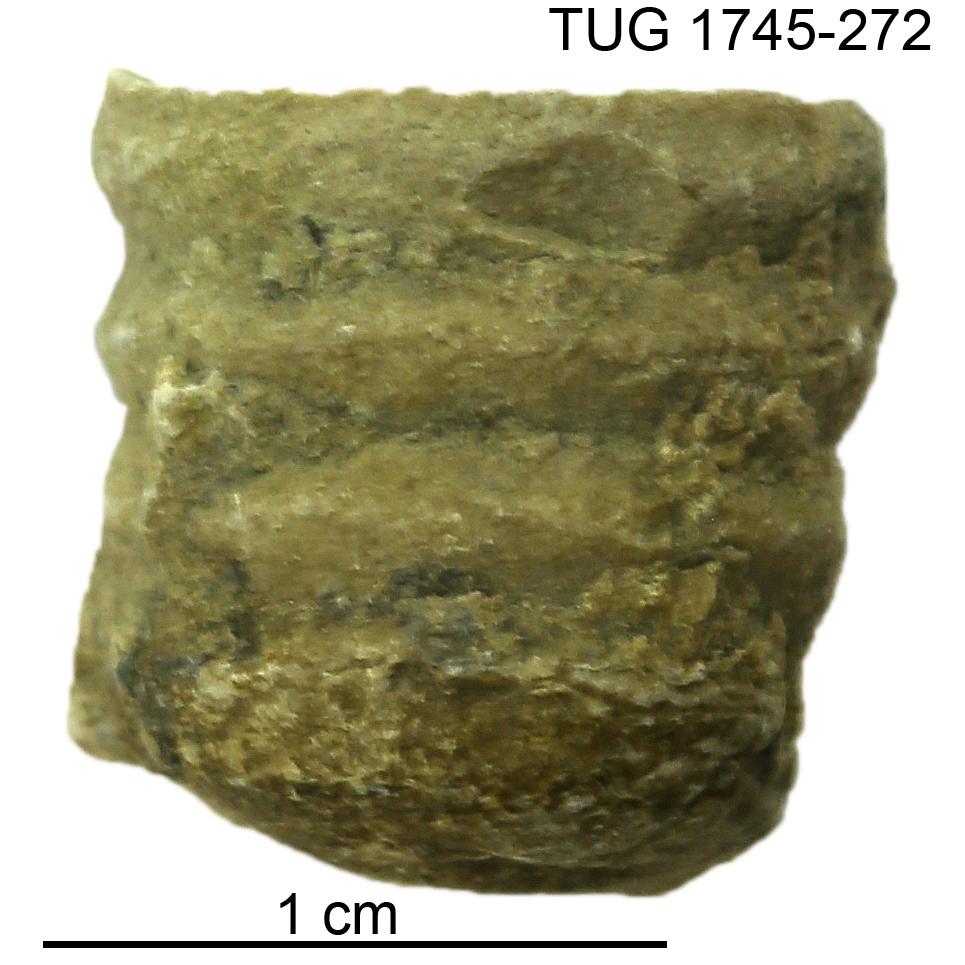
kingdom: Animalia
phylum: Mollusca
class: Cephalopoda
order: Orthocerida
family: Dawsonoceratidae
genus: Palaeodawsonocerina
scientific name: Palaeodawsonocerina Spyroceras senckenbergi
